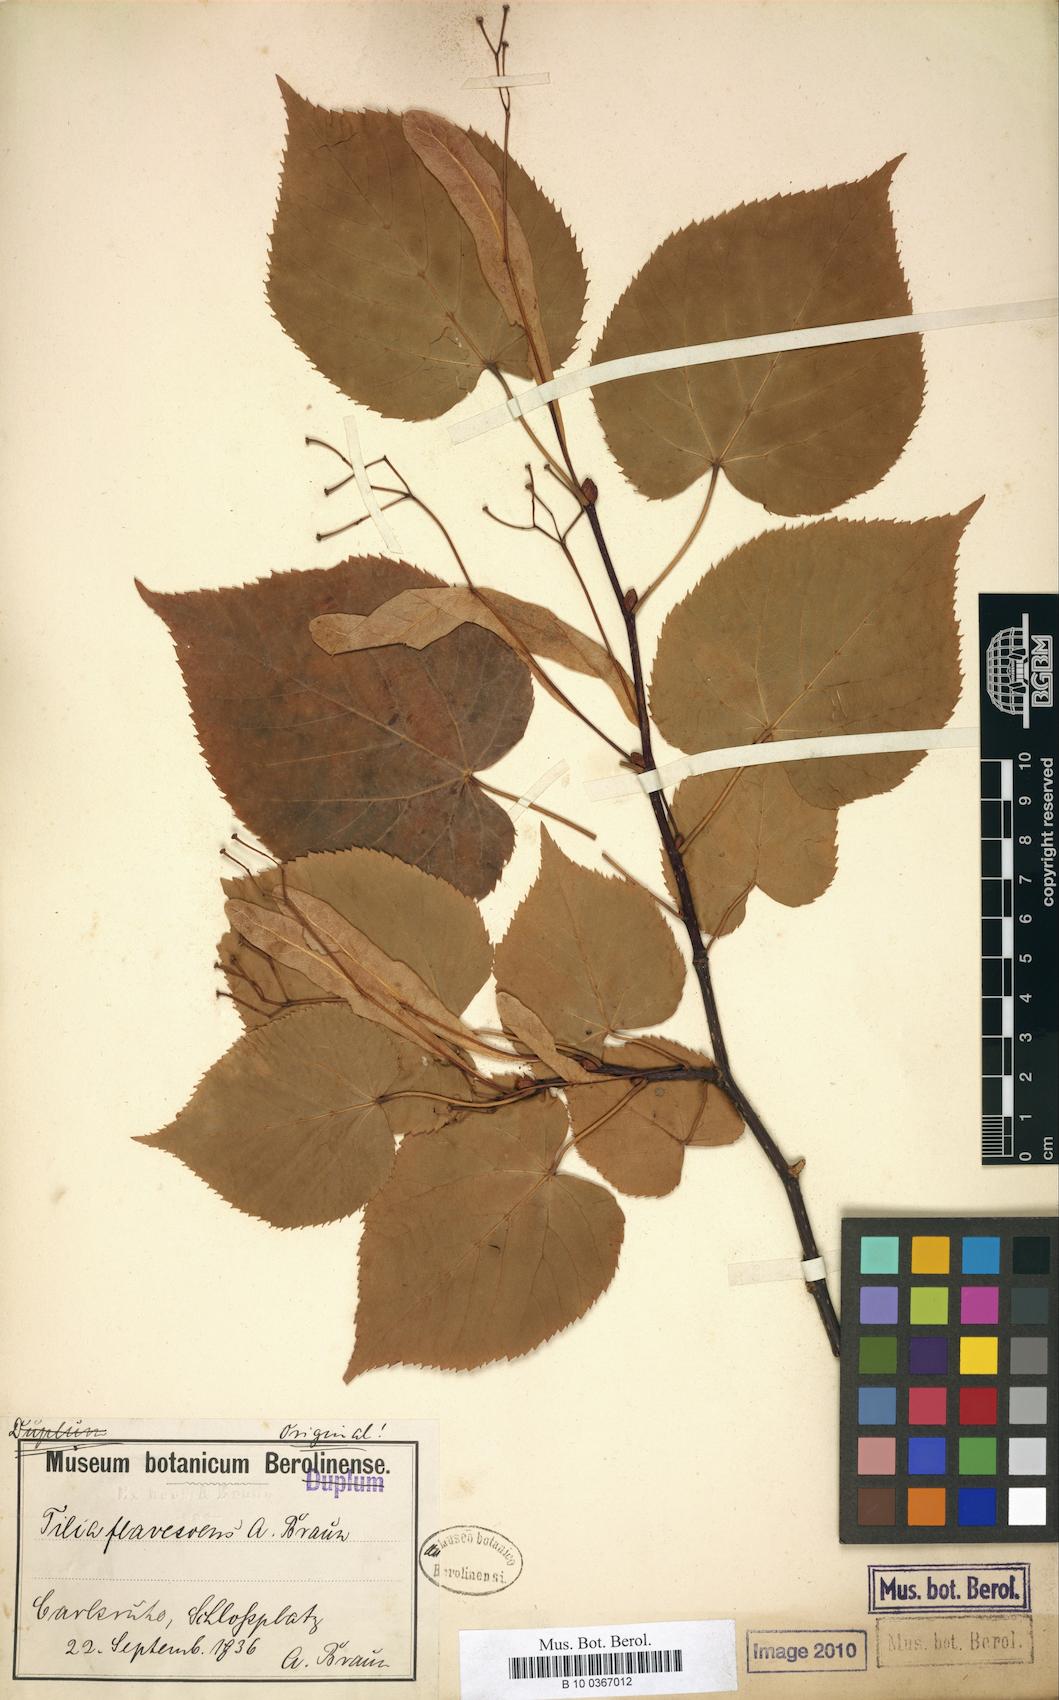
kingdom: Plantae
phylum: Tracheophyta
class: Magnoliopsida
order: Malvales
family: Malvaceae
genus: Tilia
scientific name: Tilia flavescens
